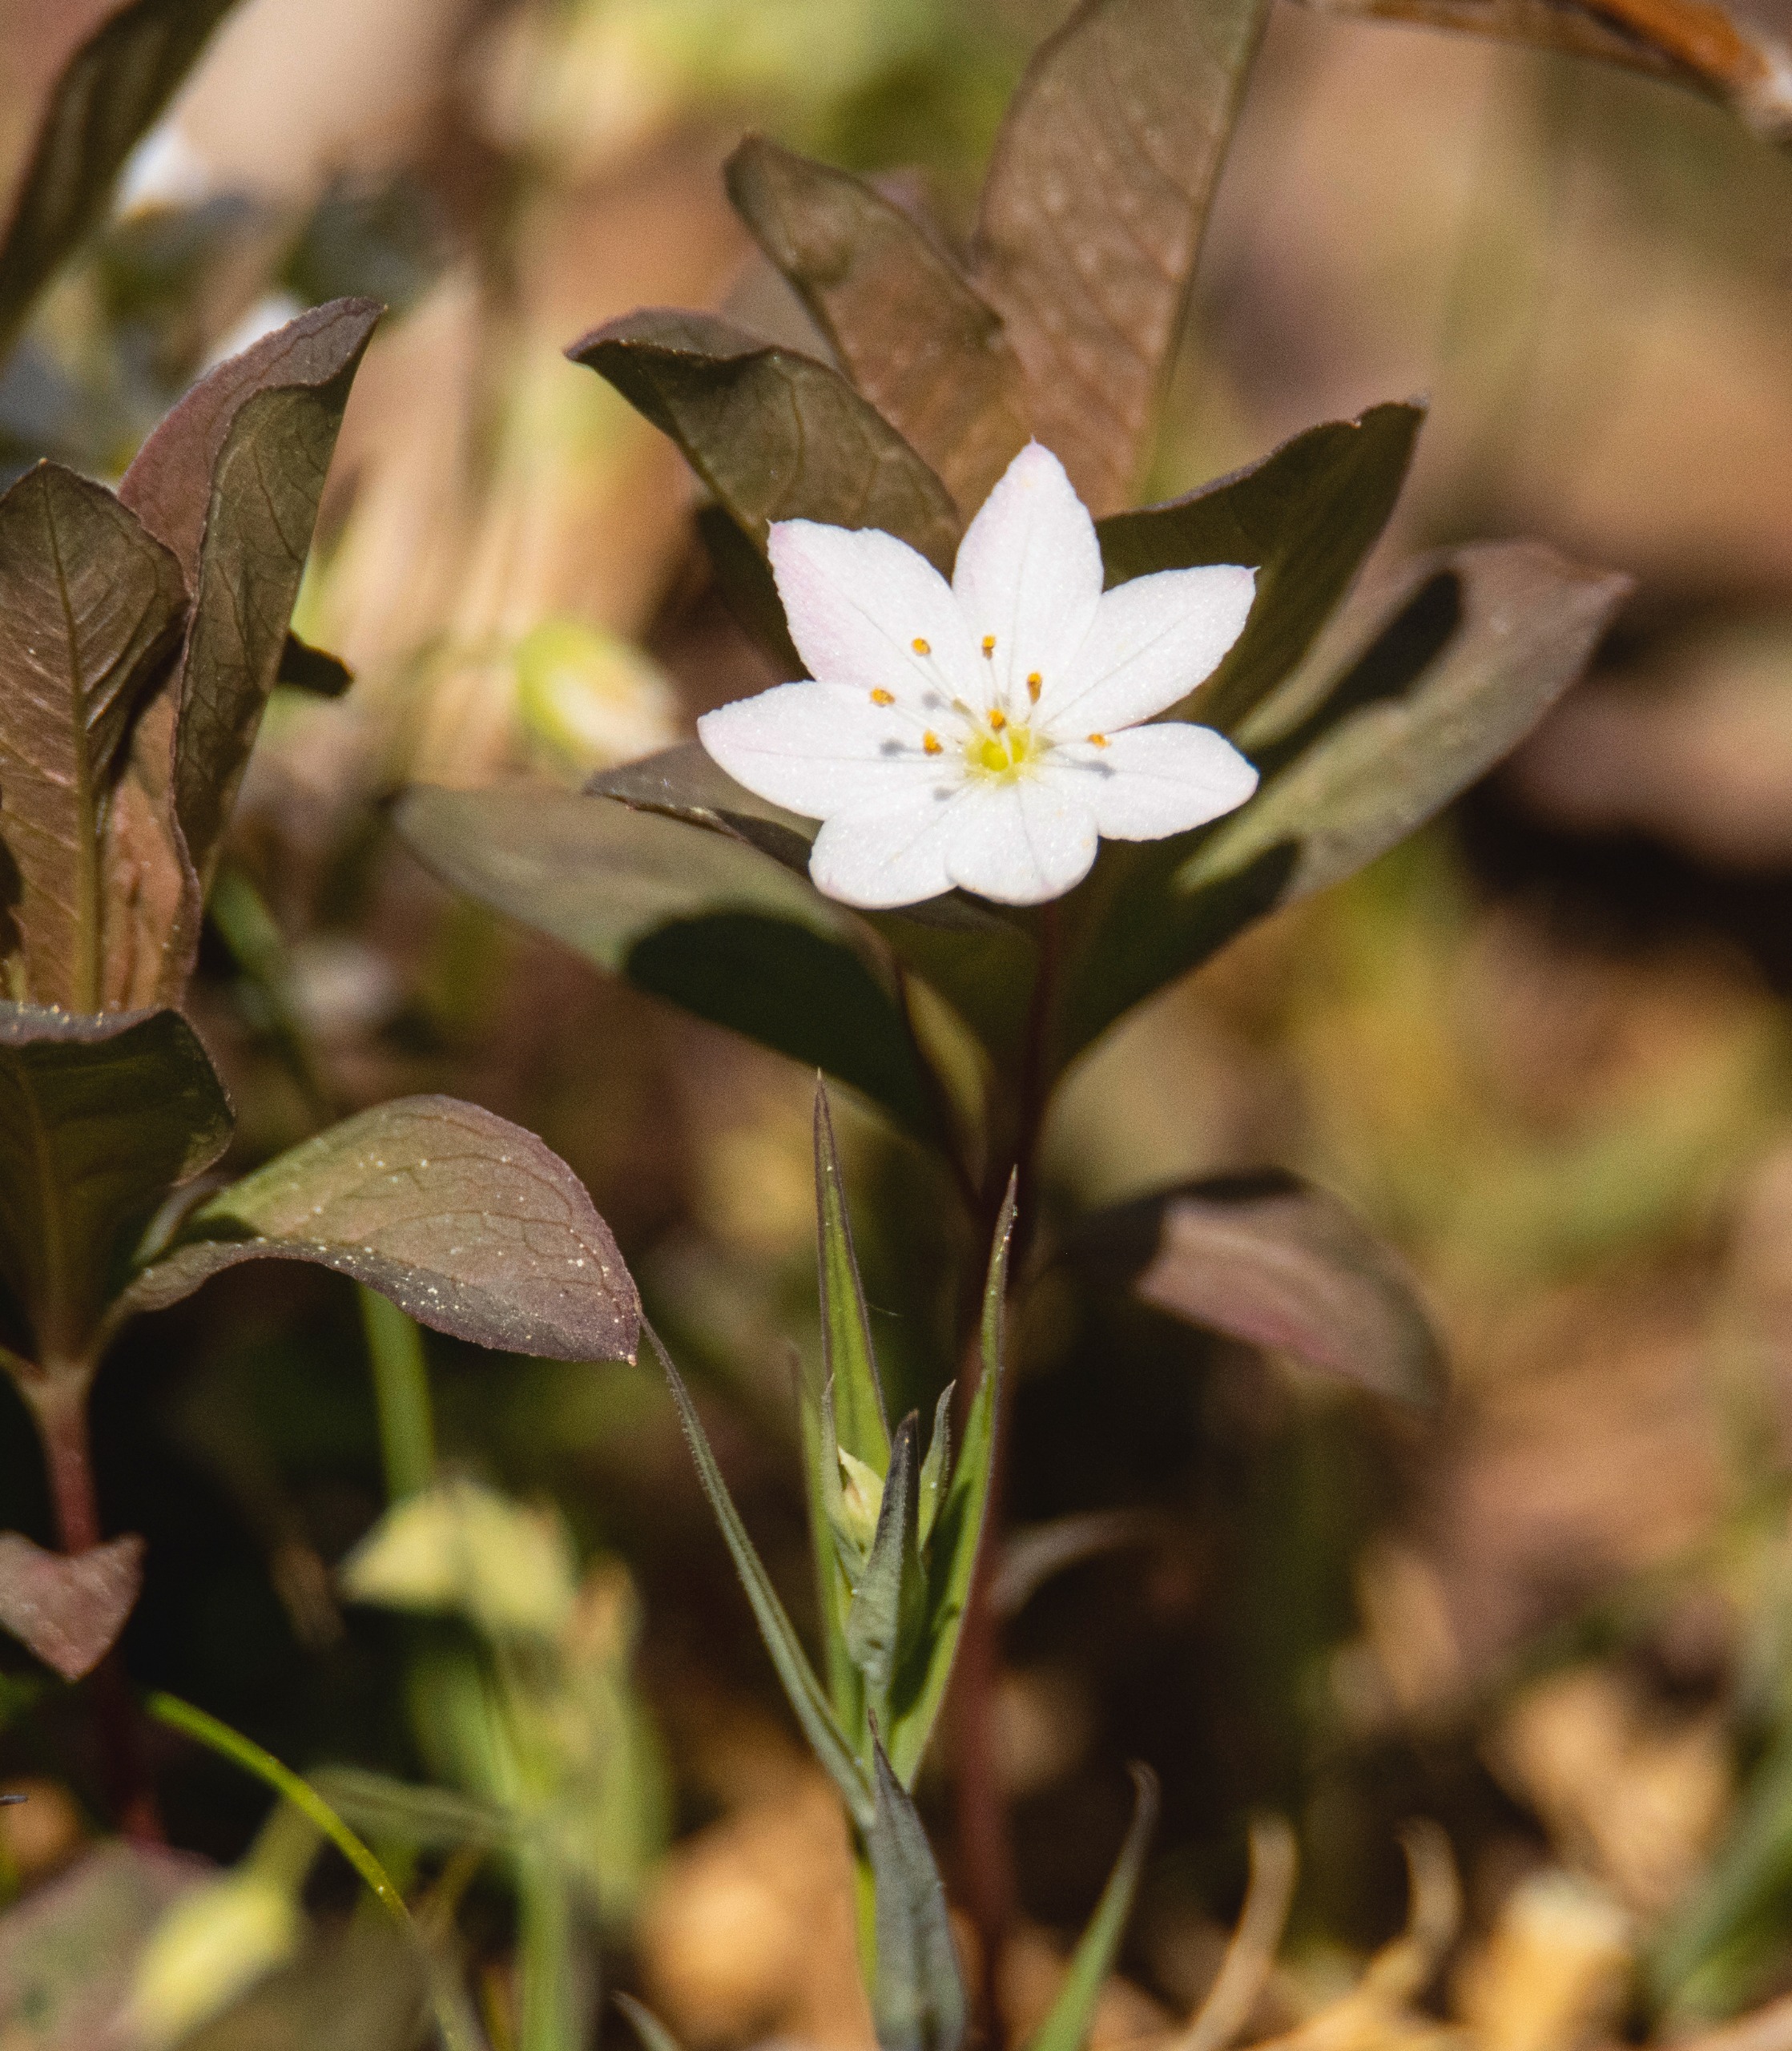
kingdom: Plantae
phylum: Tracheophyta
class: Magnoliopsida
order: Ericales
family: Primulaceae
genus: Lysimachia
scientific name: Lysimachia europaea
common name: Skovstjerne
